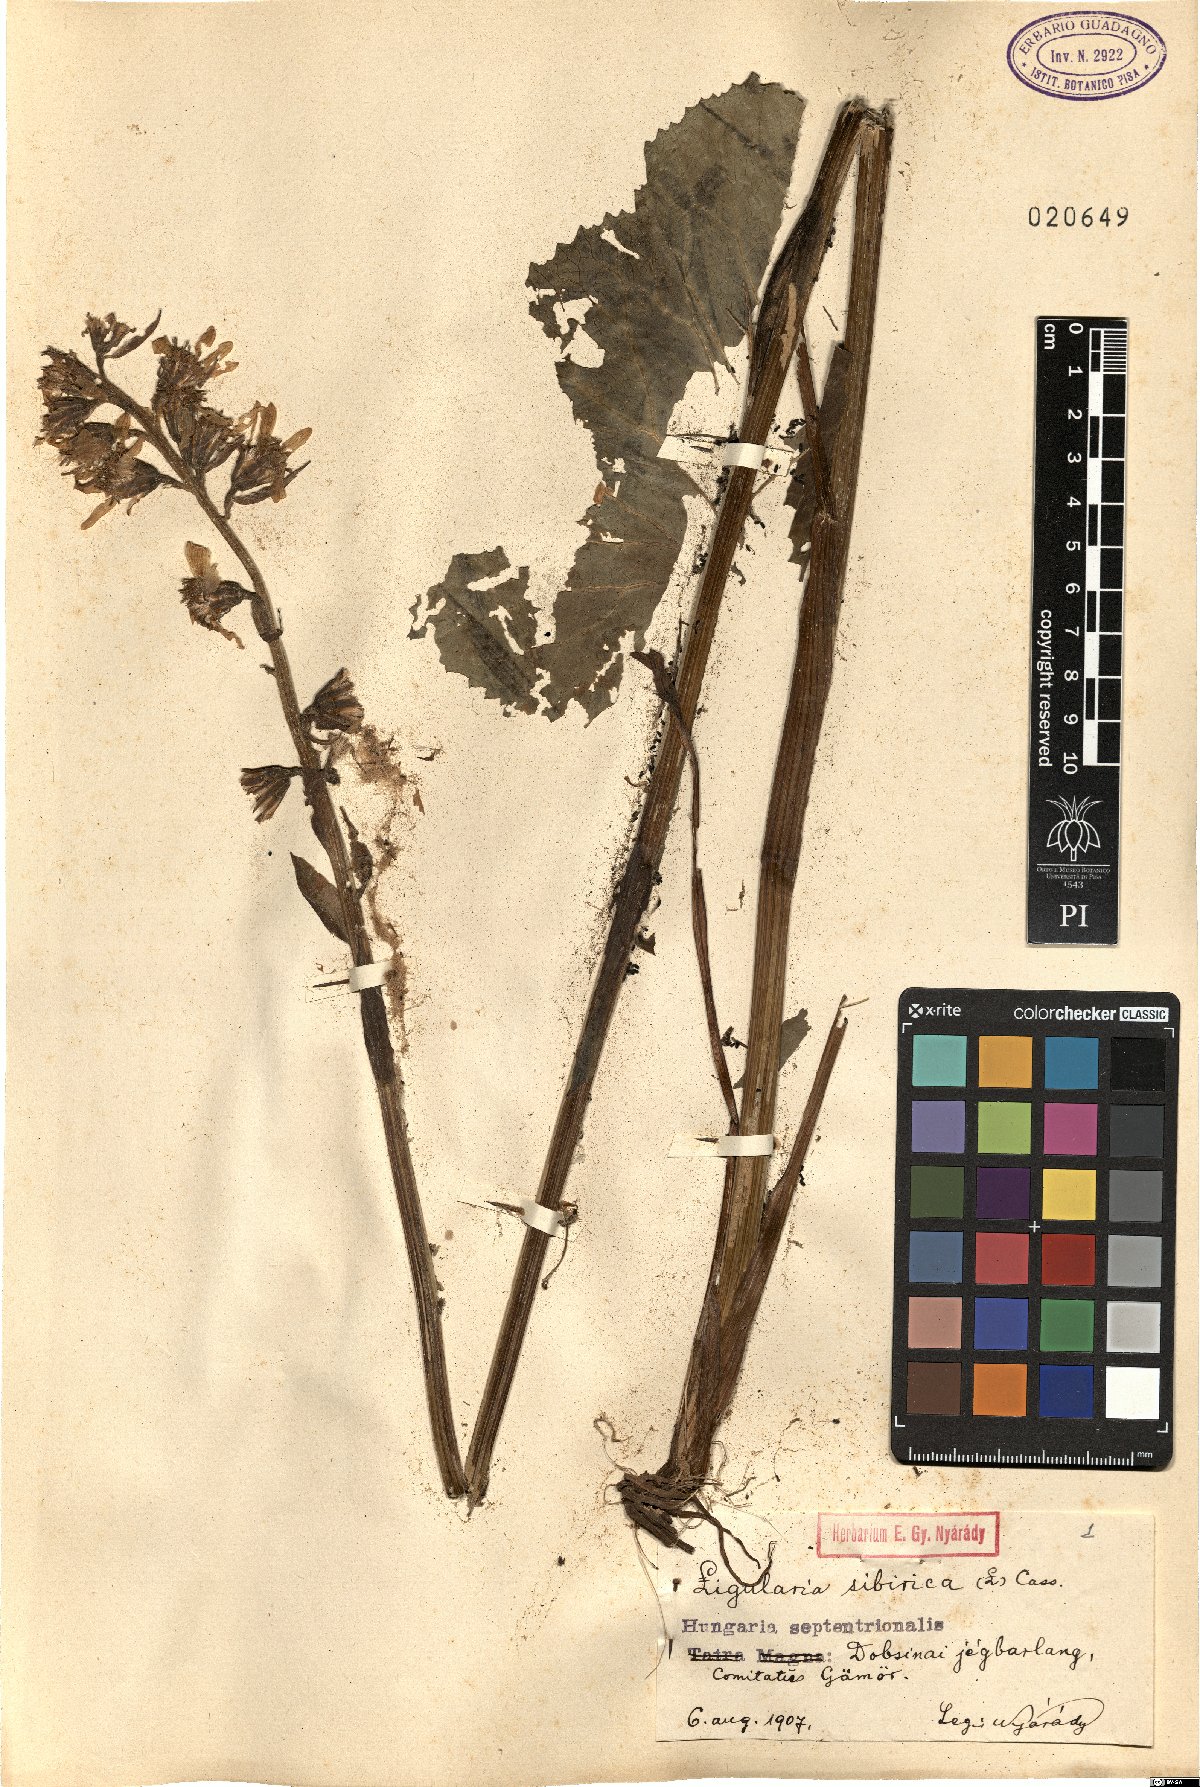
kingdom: Plantae
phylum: Tracheophyta
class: Magnoliopsida
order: Asterales
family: Asteraceae
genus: Ligularia
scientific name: Ligularia sibirica
